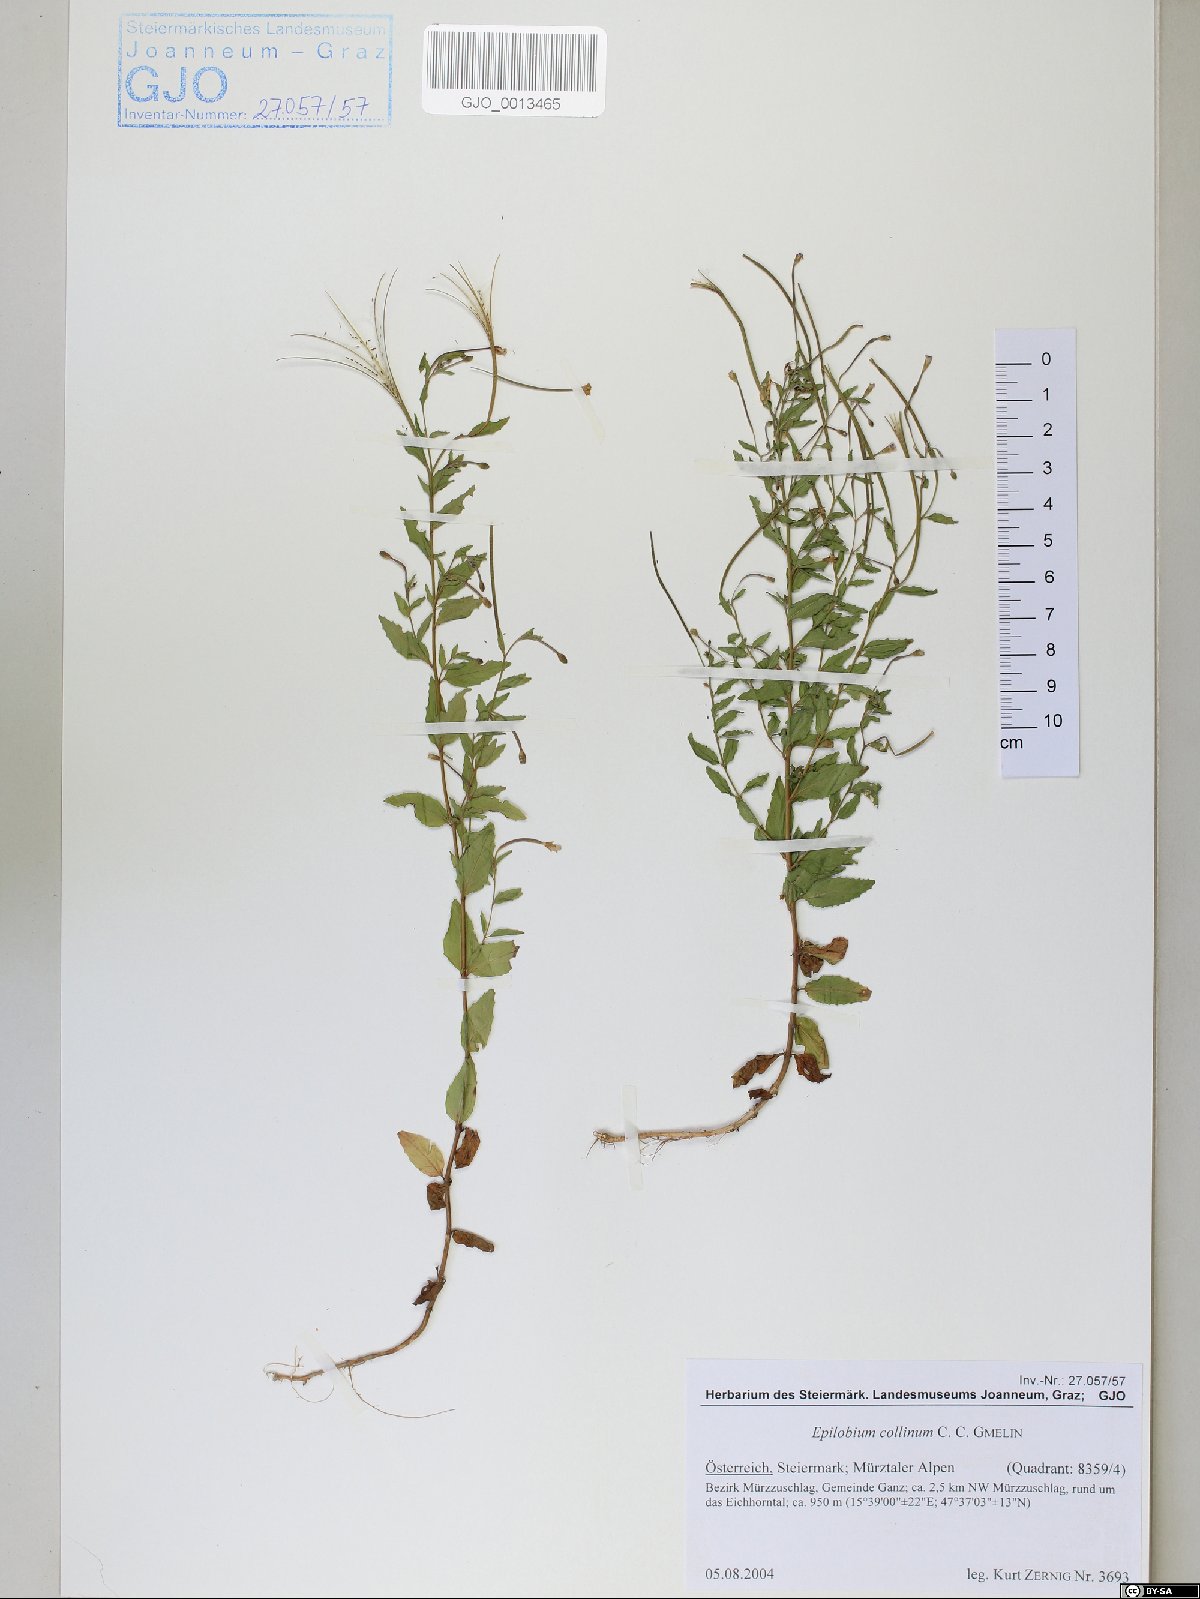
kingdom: Plantae
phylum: Tracheophyta
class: Magnoliopsida
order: Myrtales
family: Onagraceae
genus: Epilobium
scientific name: Epilobium collinum
